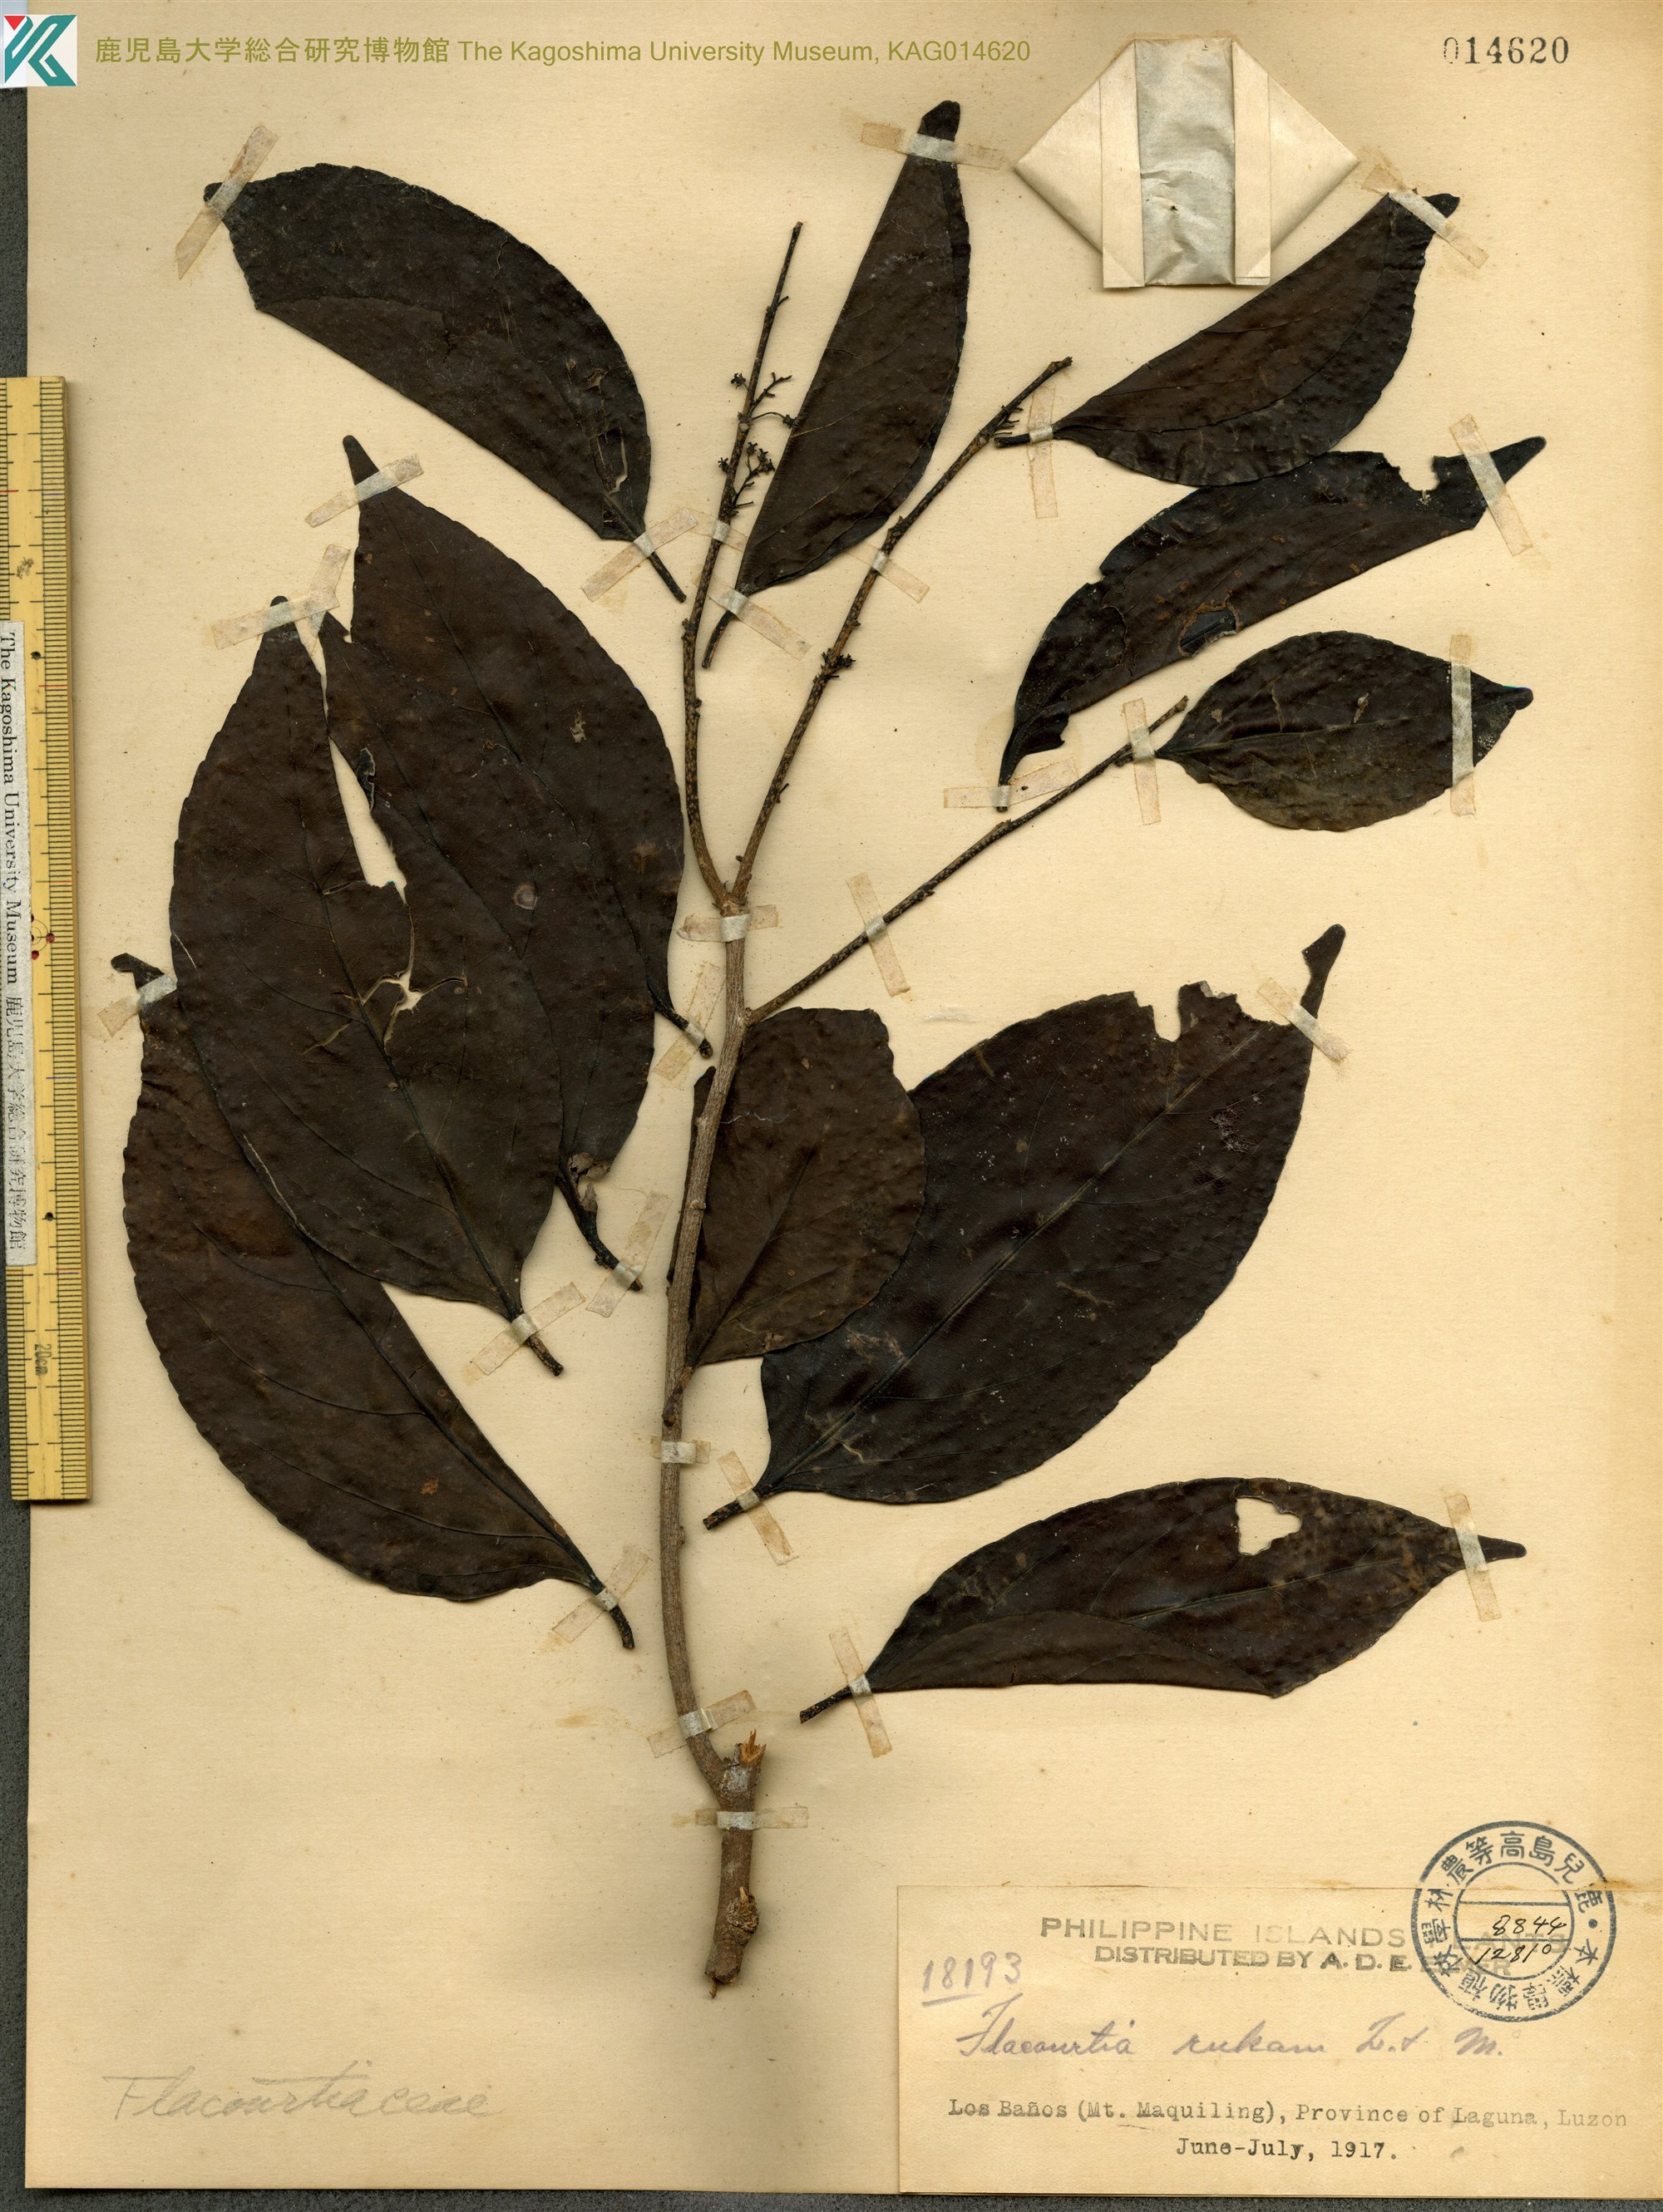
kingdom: Plantae
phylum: Tracheophyta
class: Magnoliopsida
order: Malpighiales
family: Salicaceae
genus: Flacourtia
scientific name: Flacourtia rukam
